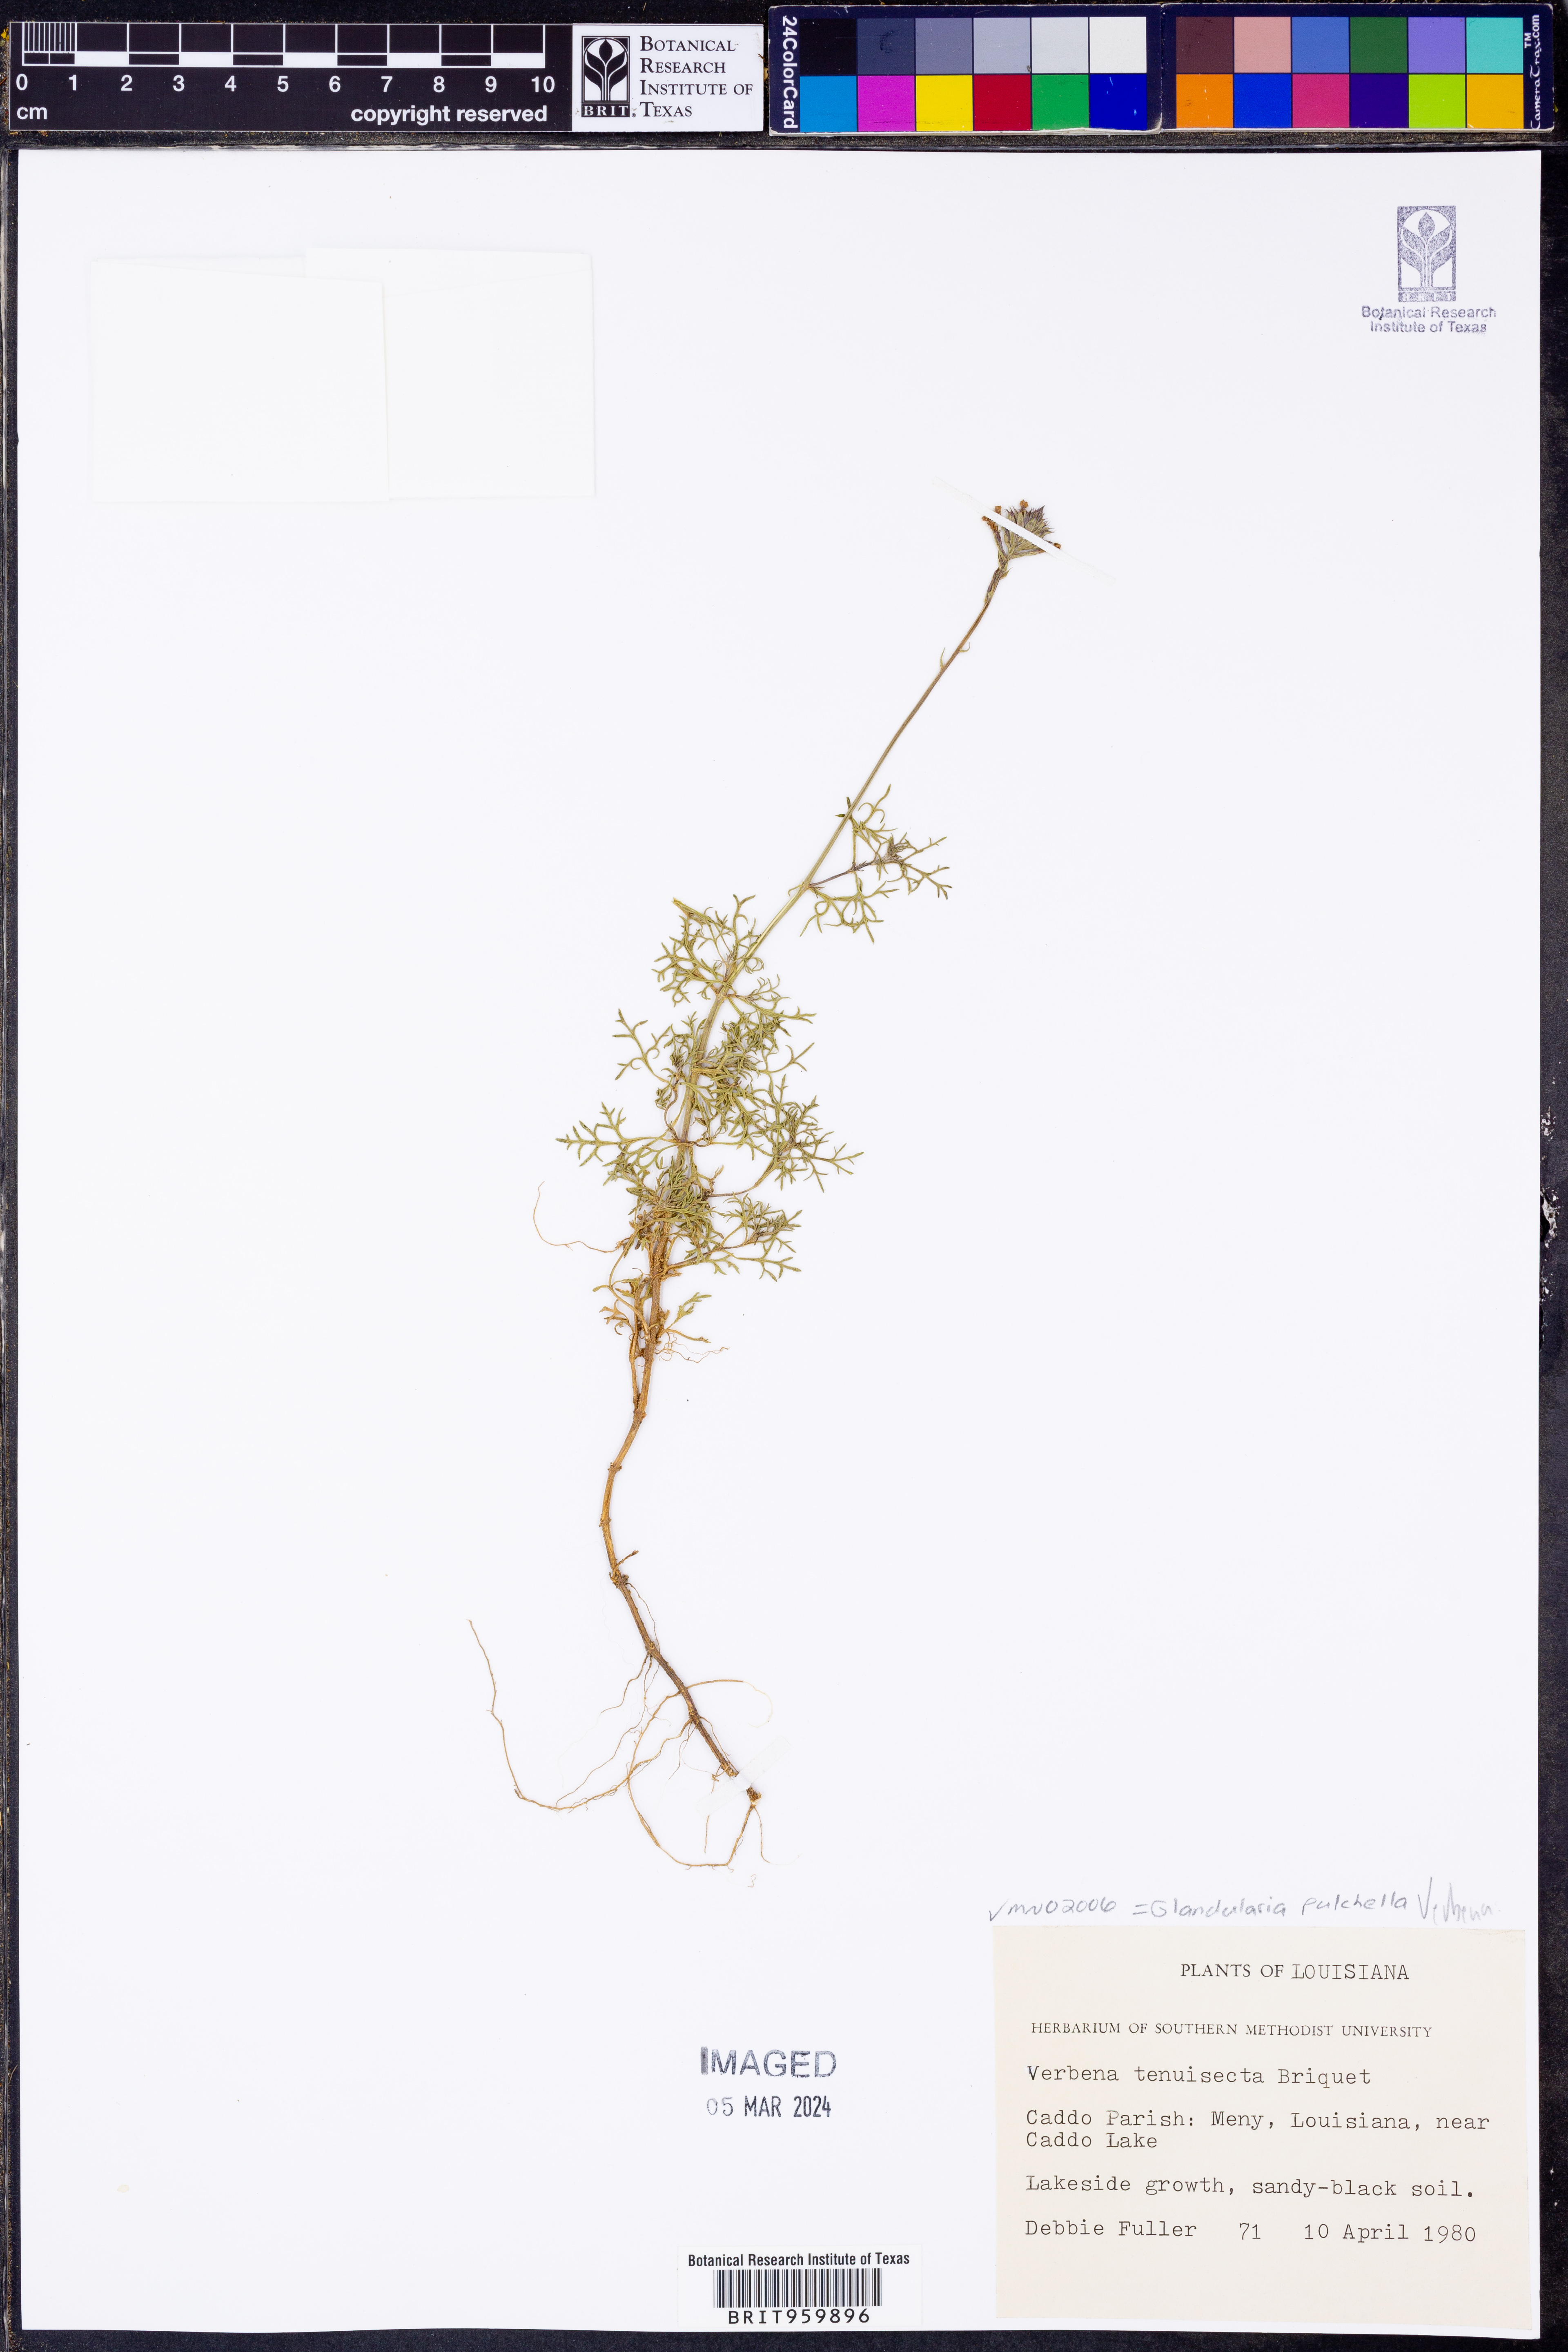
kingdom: Plantae
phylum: Tracheophyta
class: Magnoliopsida
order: Lamiales
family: Verbenaceae
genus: Verbena
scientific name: Verbena tenera
